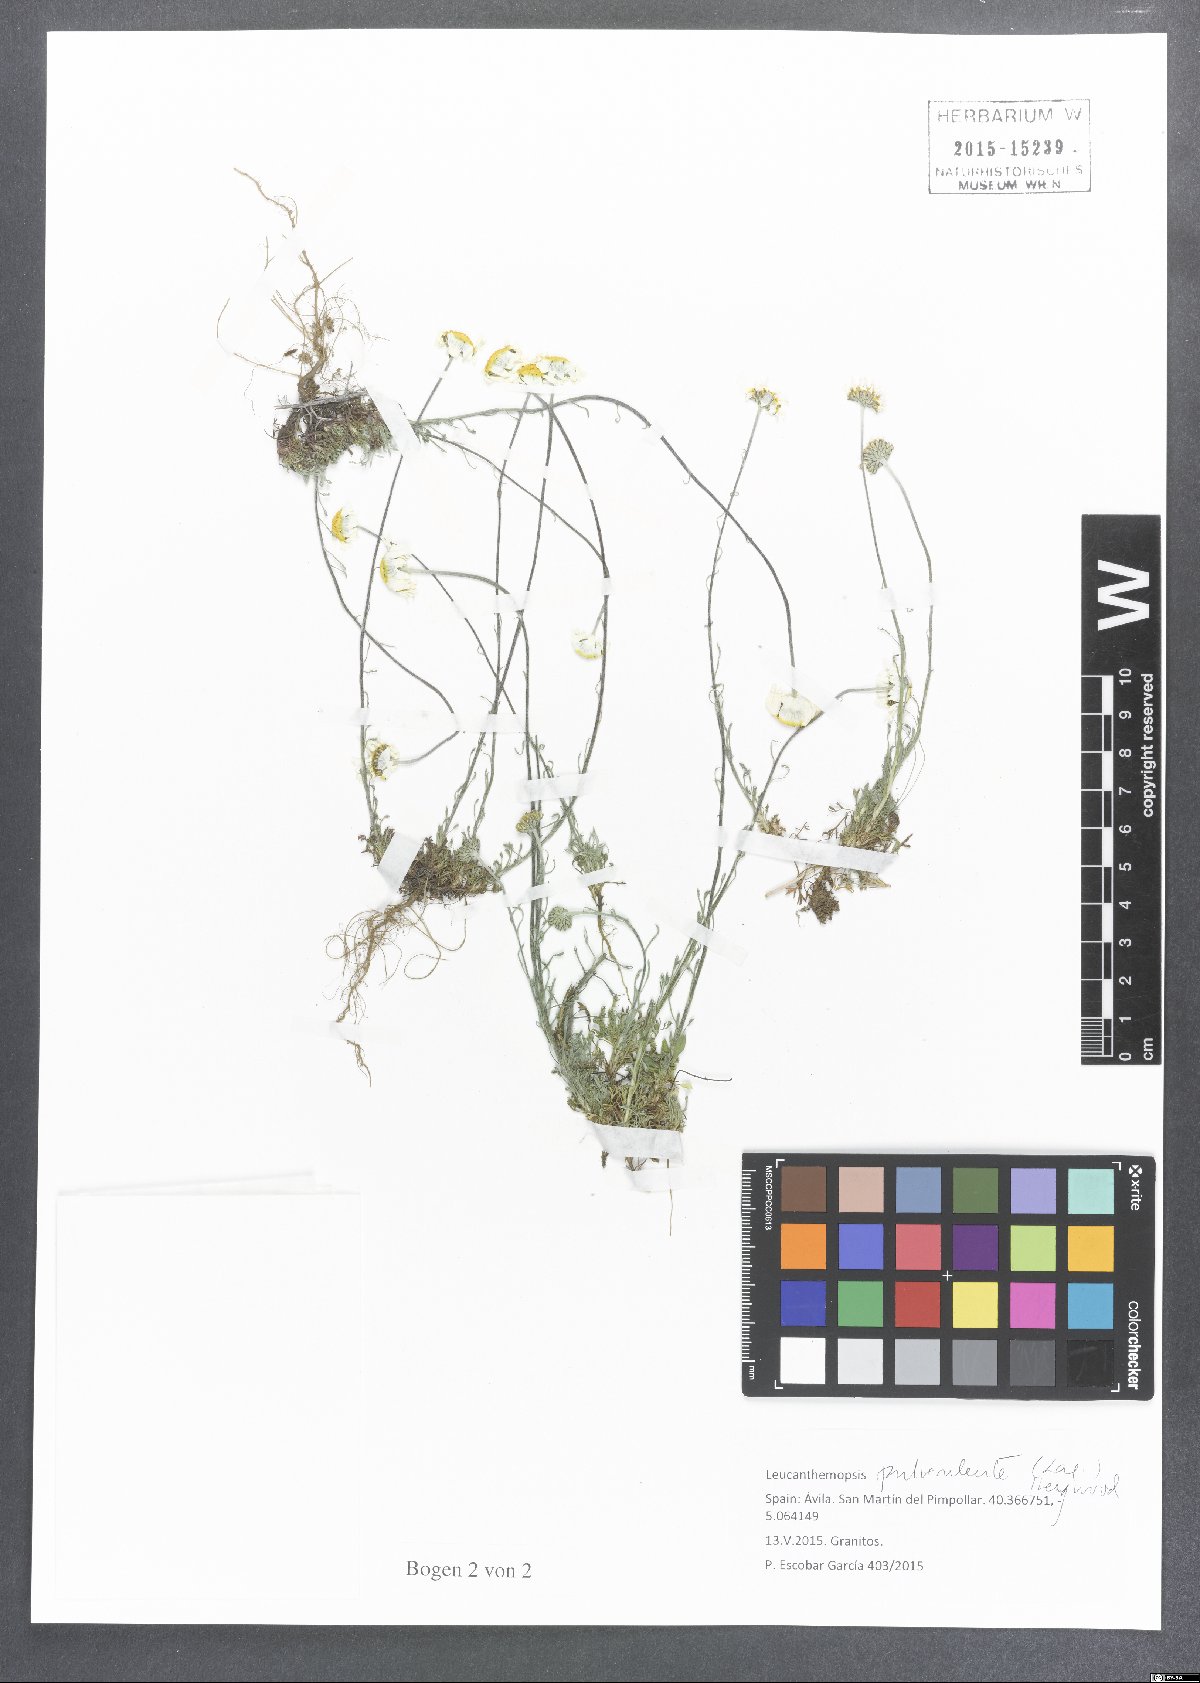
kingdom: Plantae
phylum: Tracheophyta
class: Magnoliopsida
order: Asterales
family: Asteraceae
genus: Leucanthemopsis
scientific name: Leucanthemopsis pulverulenta
